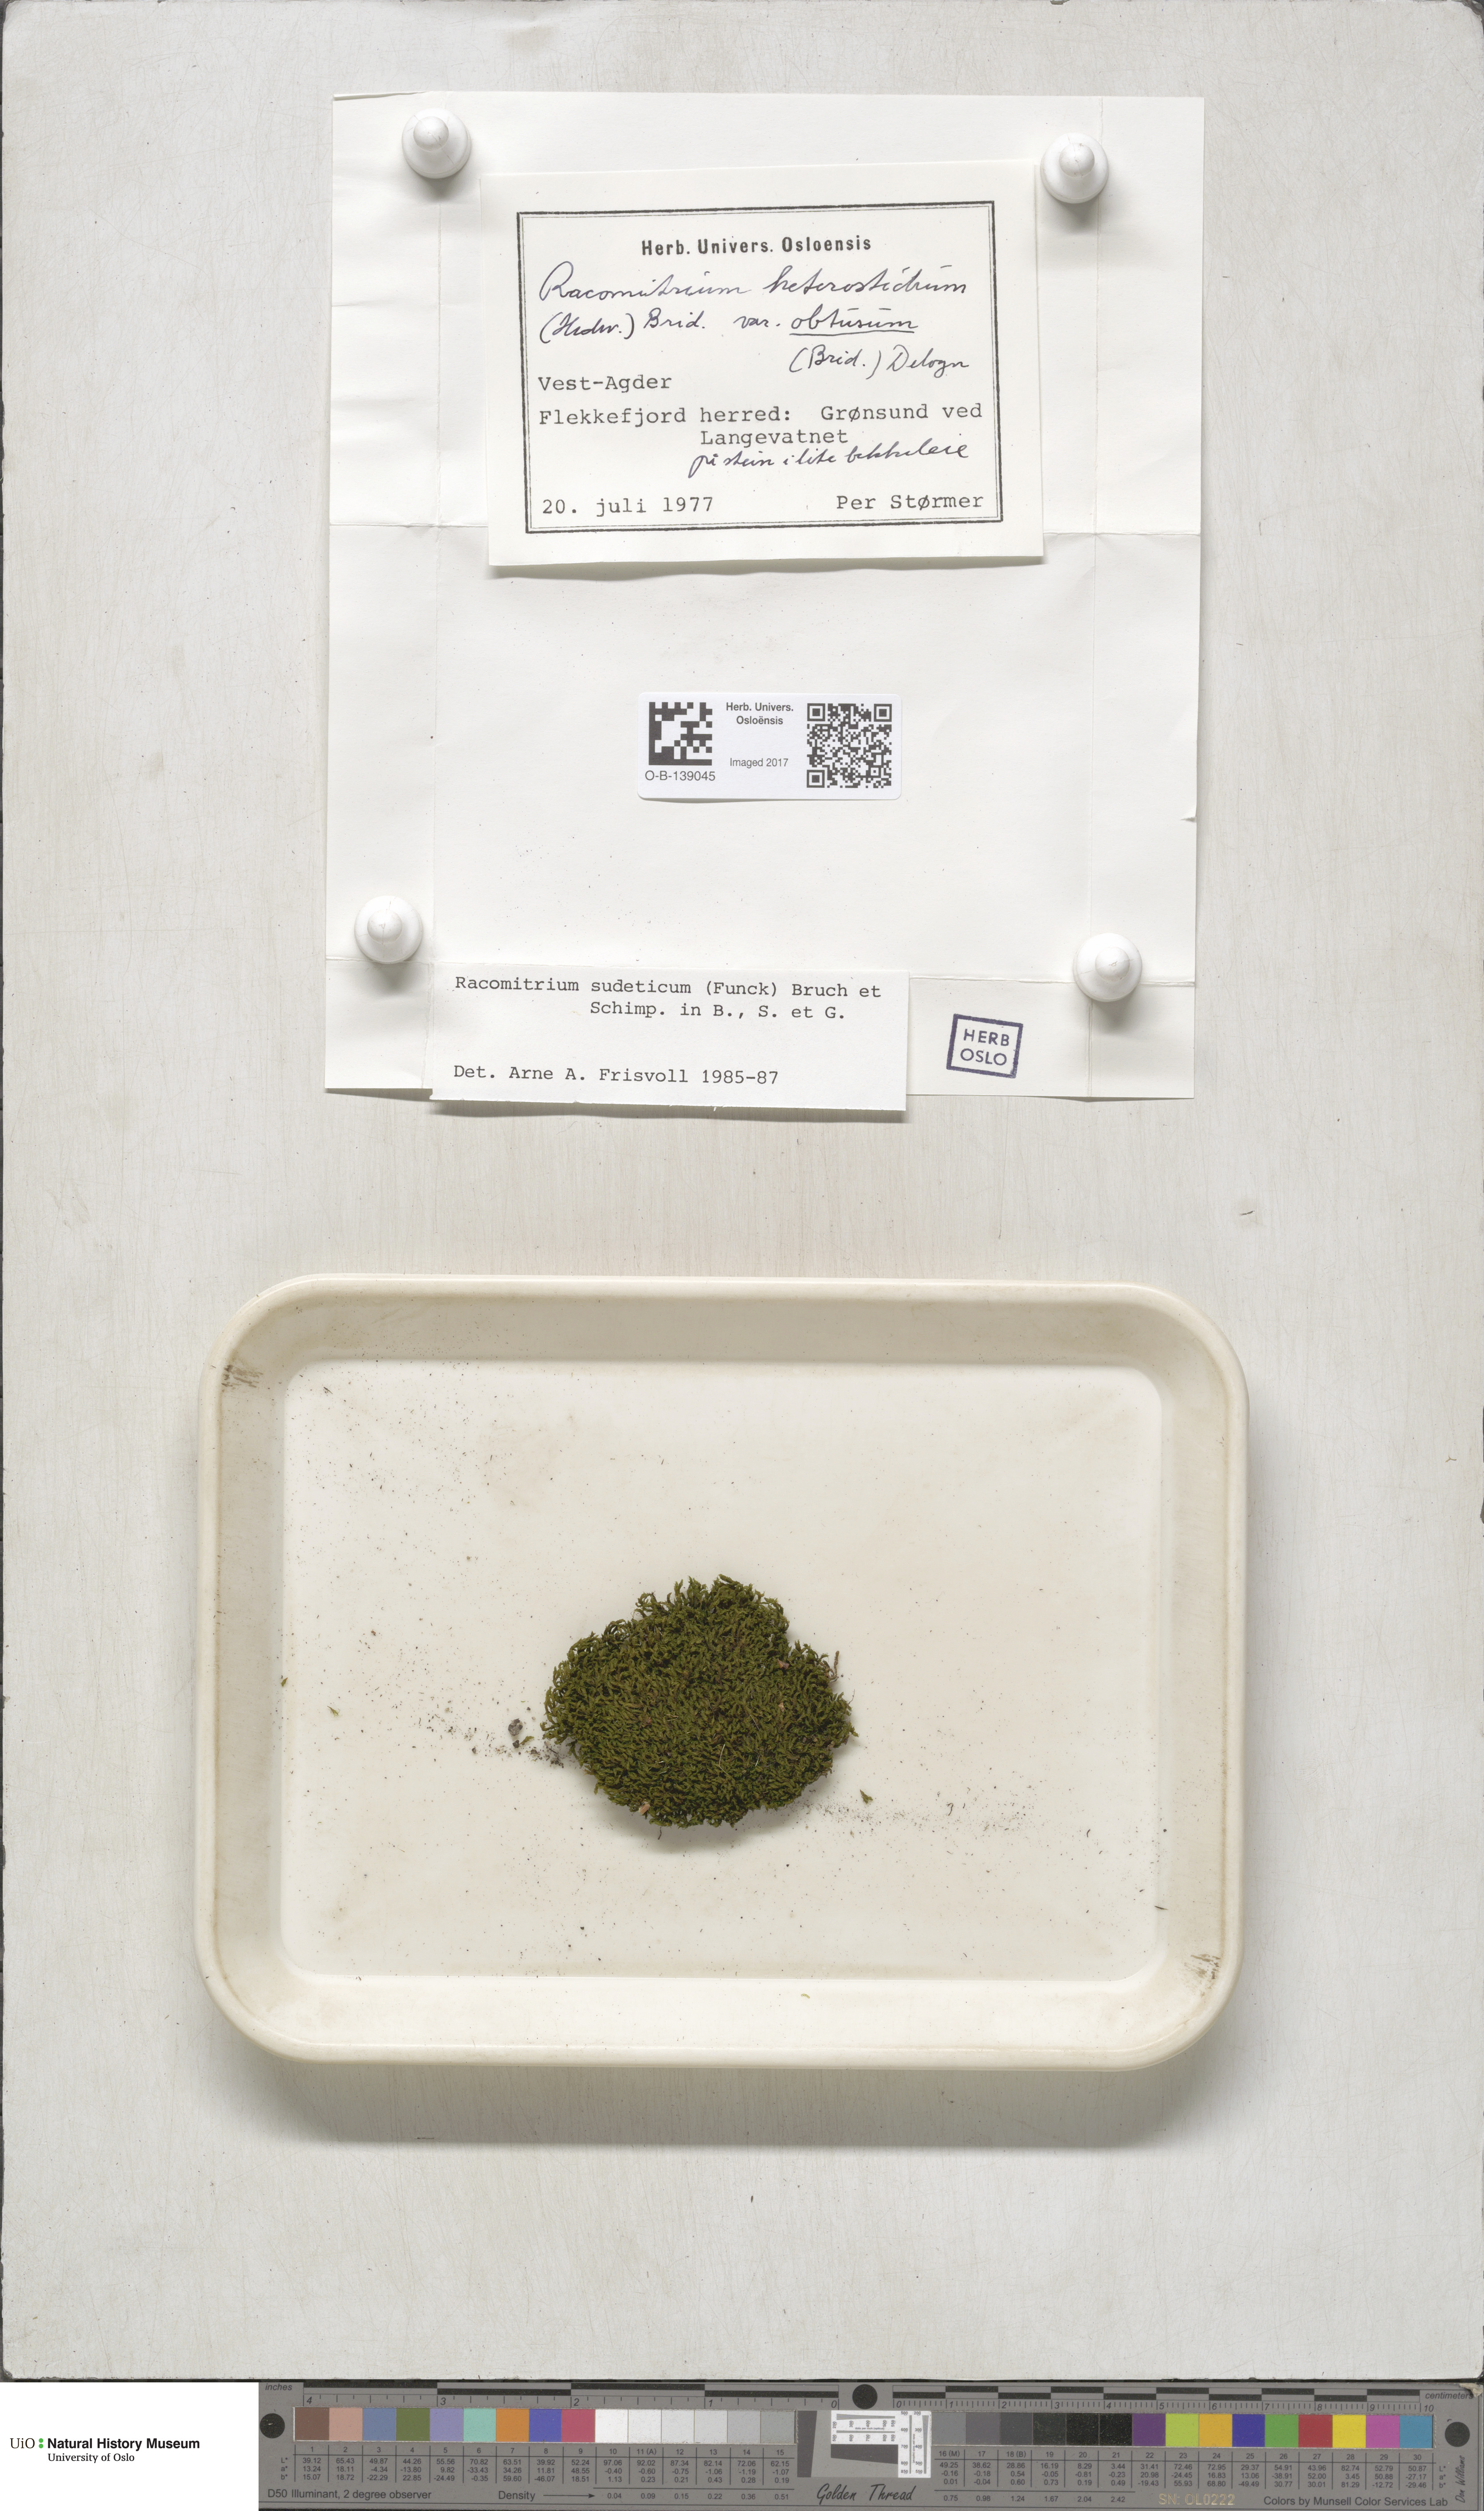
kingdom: Plantae
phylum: Bryophyta
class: Bryopsida
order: Grimmiales
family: Grimmiaceae
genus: Bucklandiella
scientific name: Bucklandiella sudetica
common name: Slender fringe-moss
